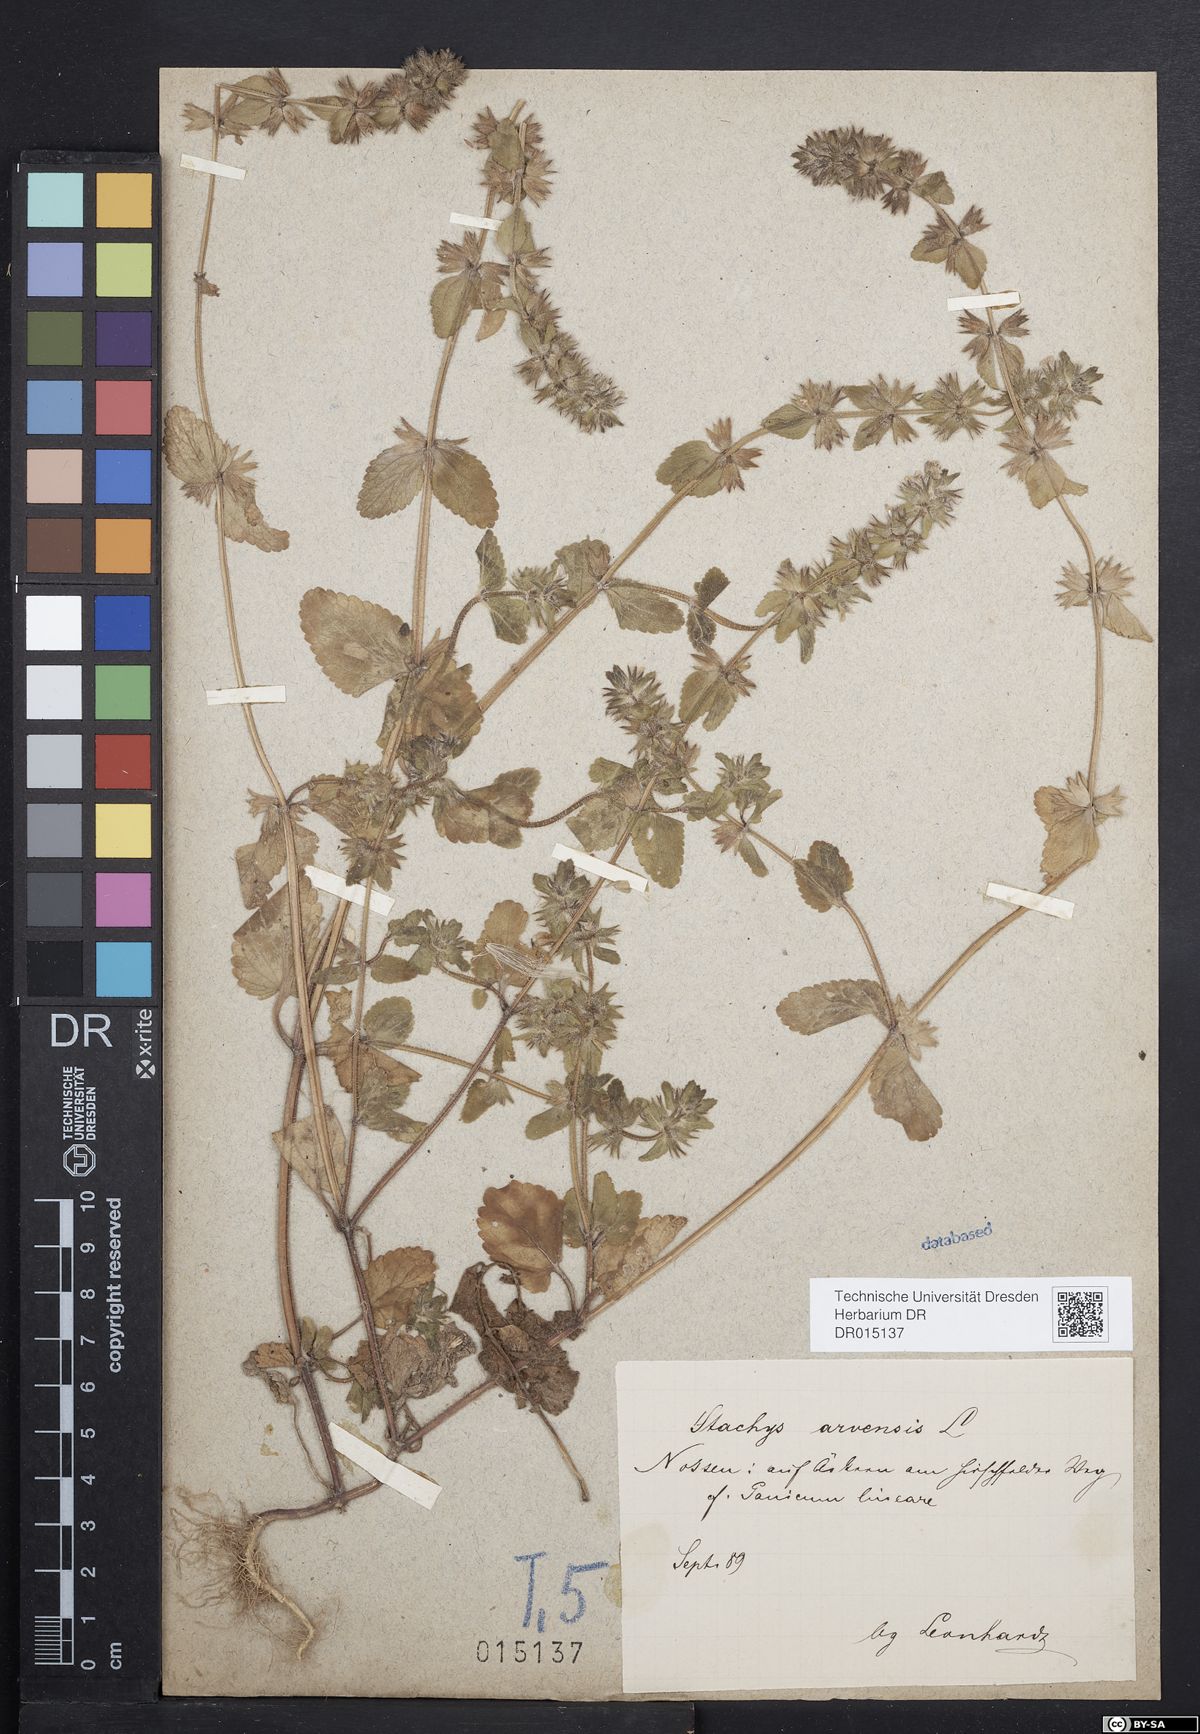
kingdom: Plantae
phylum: Tracheophyta
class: Magnoliopsida
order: Lamiales
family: Lamiaceae
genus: Stachys
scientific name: Stachys arvensis
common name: Field woundwort
